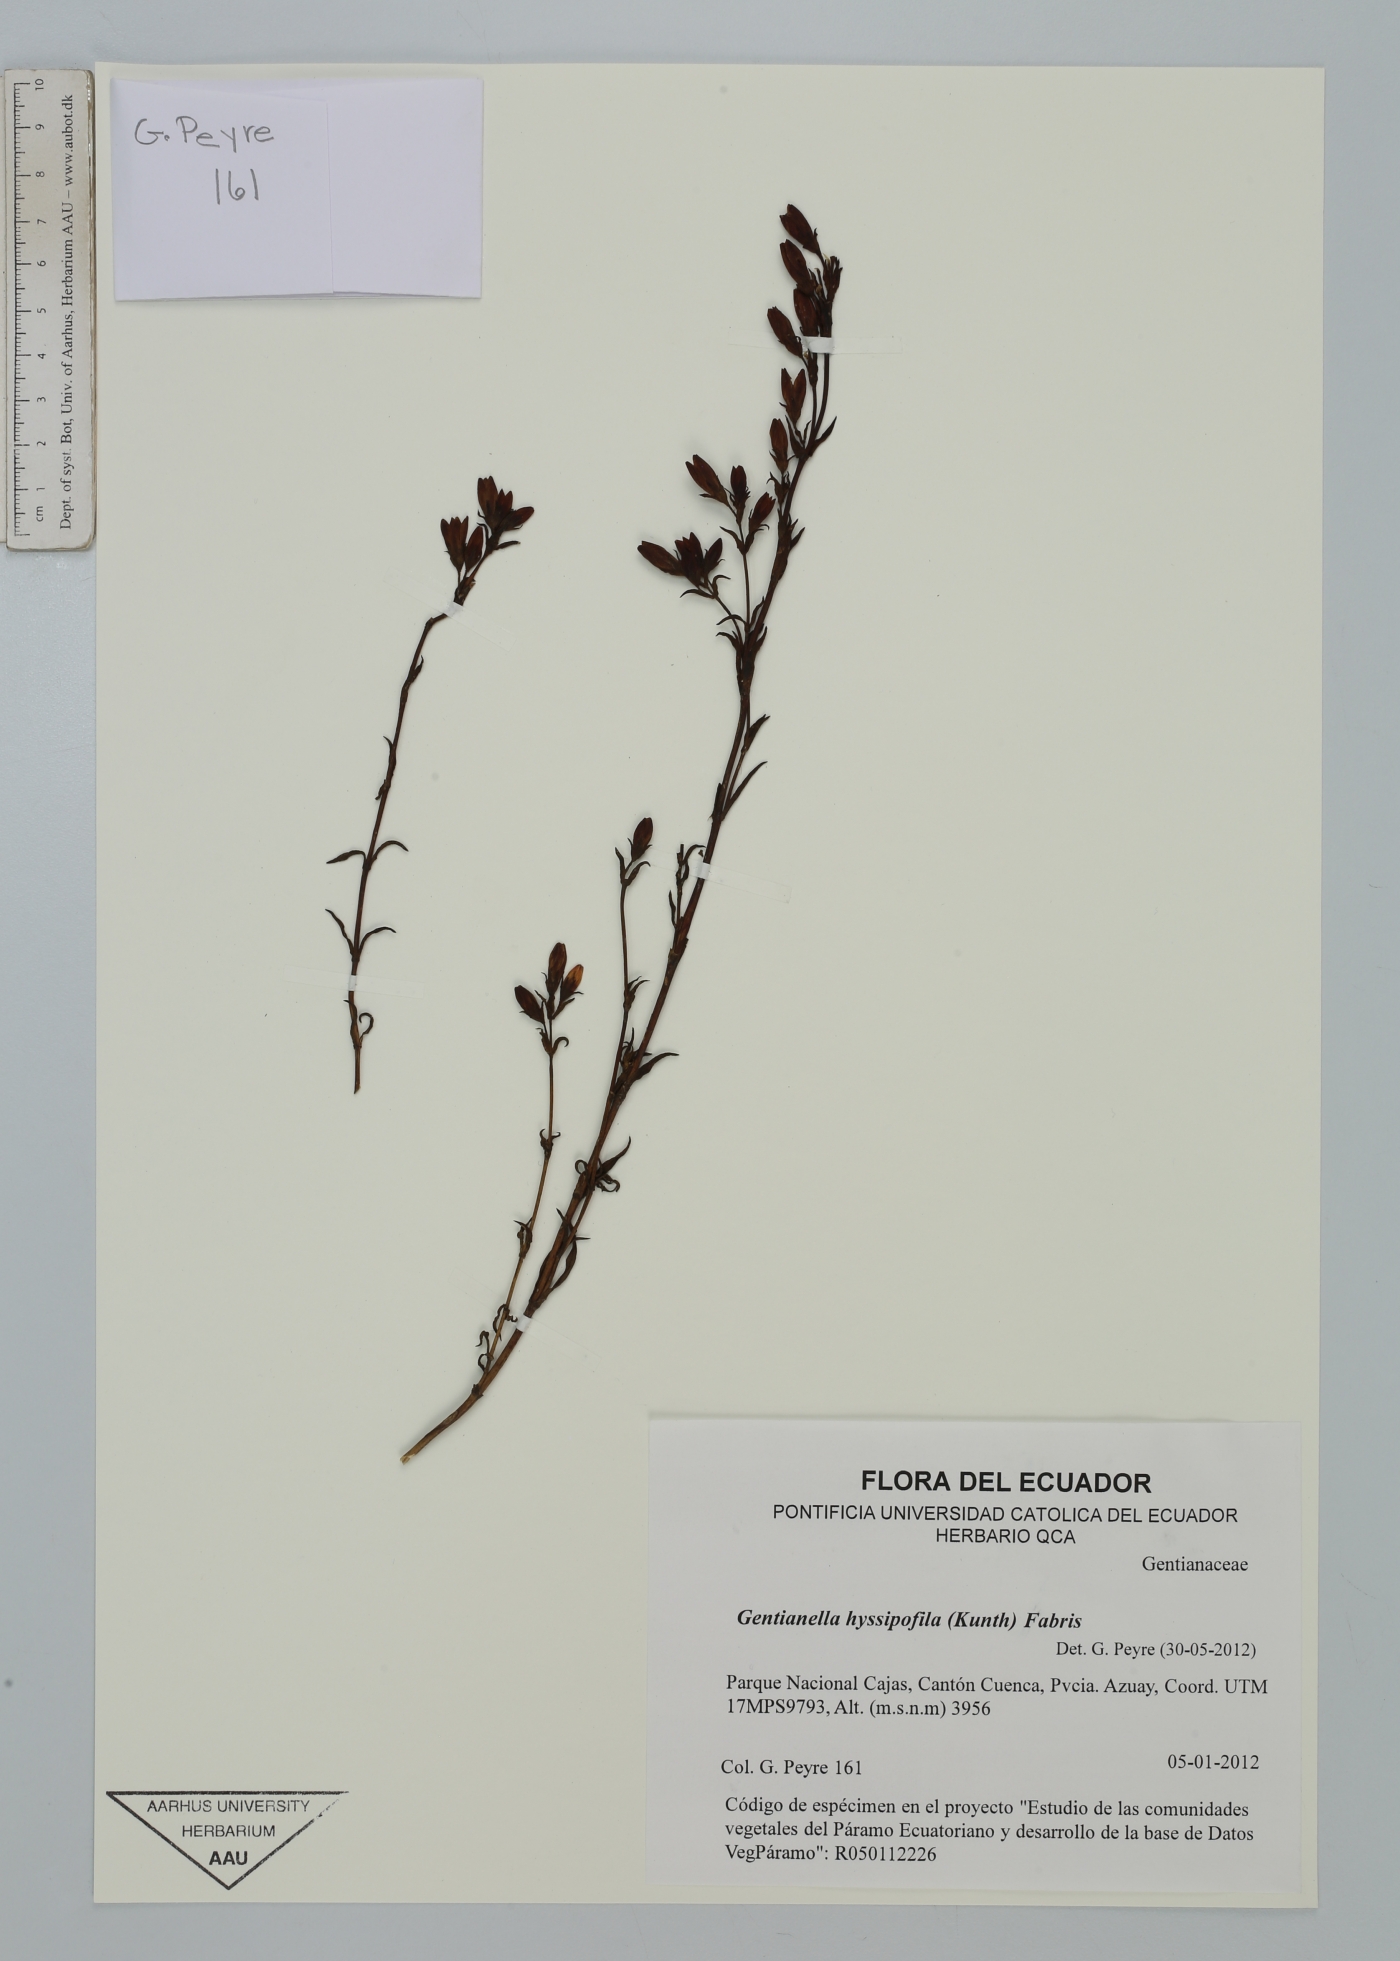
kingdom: Plantae
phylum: Tracheophyta
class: Magnoliopsida
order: Gentianales
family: Gentianaceae
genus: Gentianella
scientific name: Gentianella hyssopifolia
